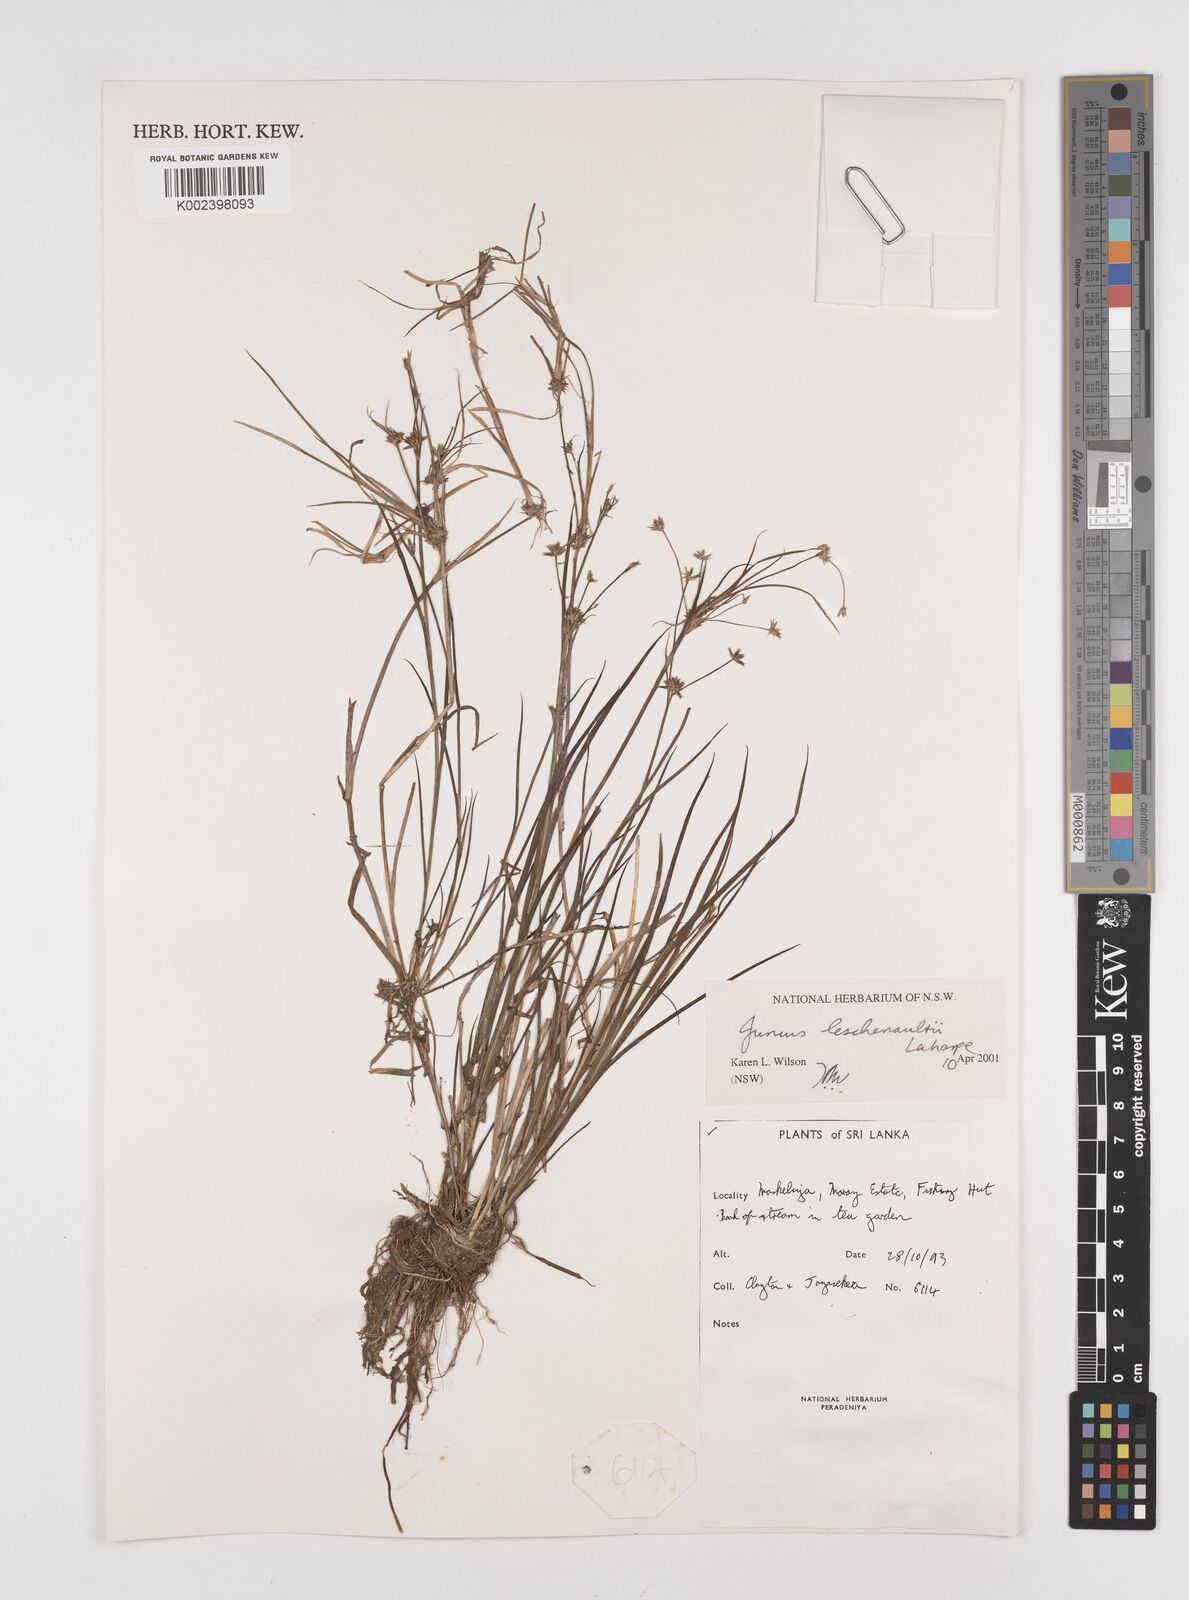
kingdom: Plantae
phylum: Tracheophyta
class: Liliopsida
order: Poales
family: Juncaceae
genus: Juncus
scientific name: Juncus
